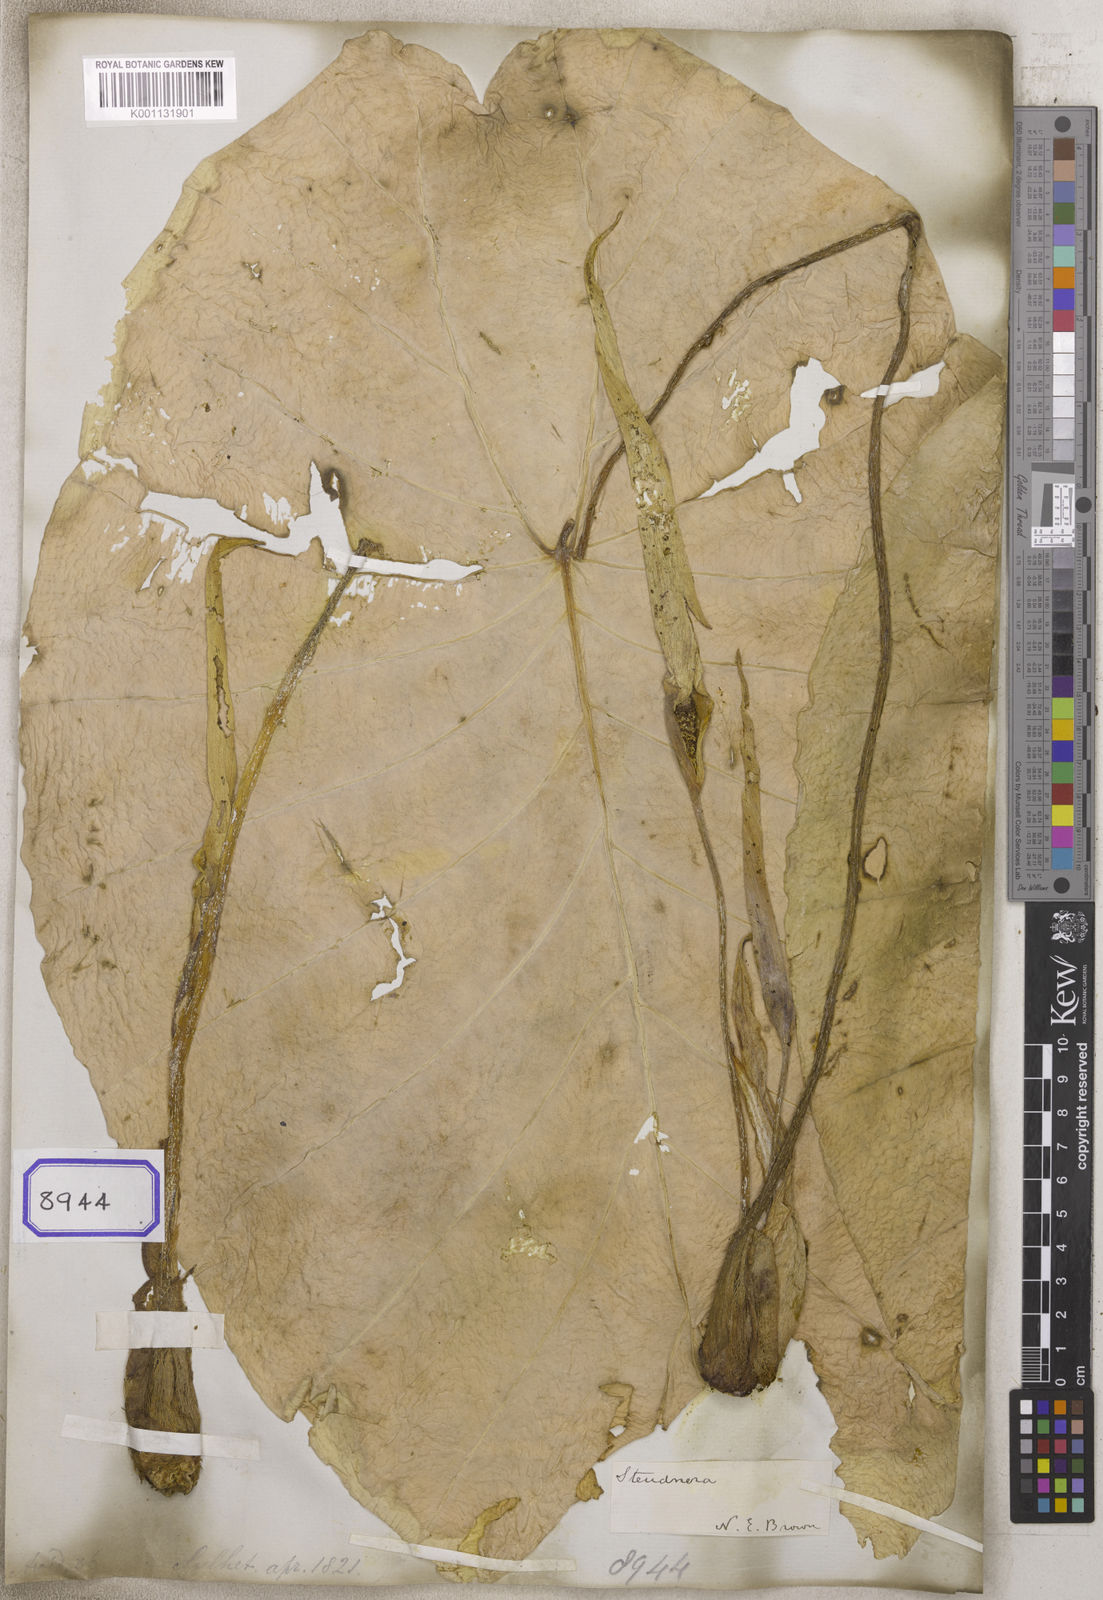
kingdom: Plantae
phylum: Tracheophyta
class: Liliopsida
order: Alismatales
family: Araceae
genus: Colocasia
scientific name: Colocasia spec
